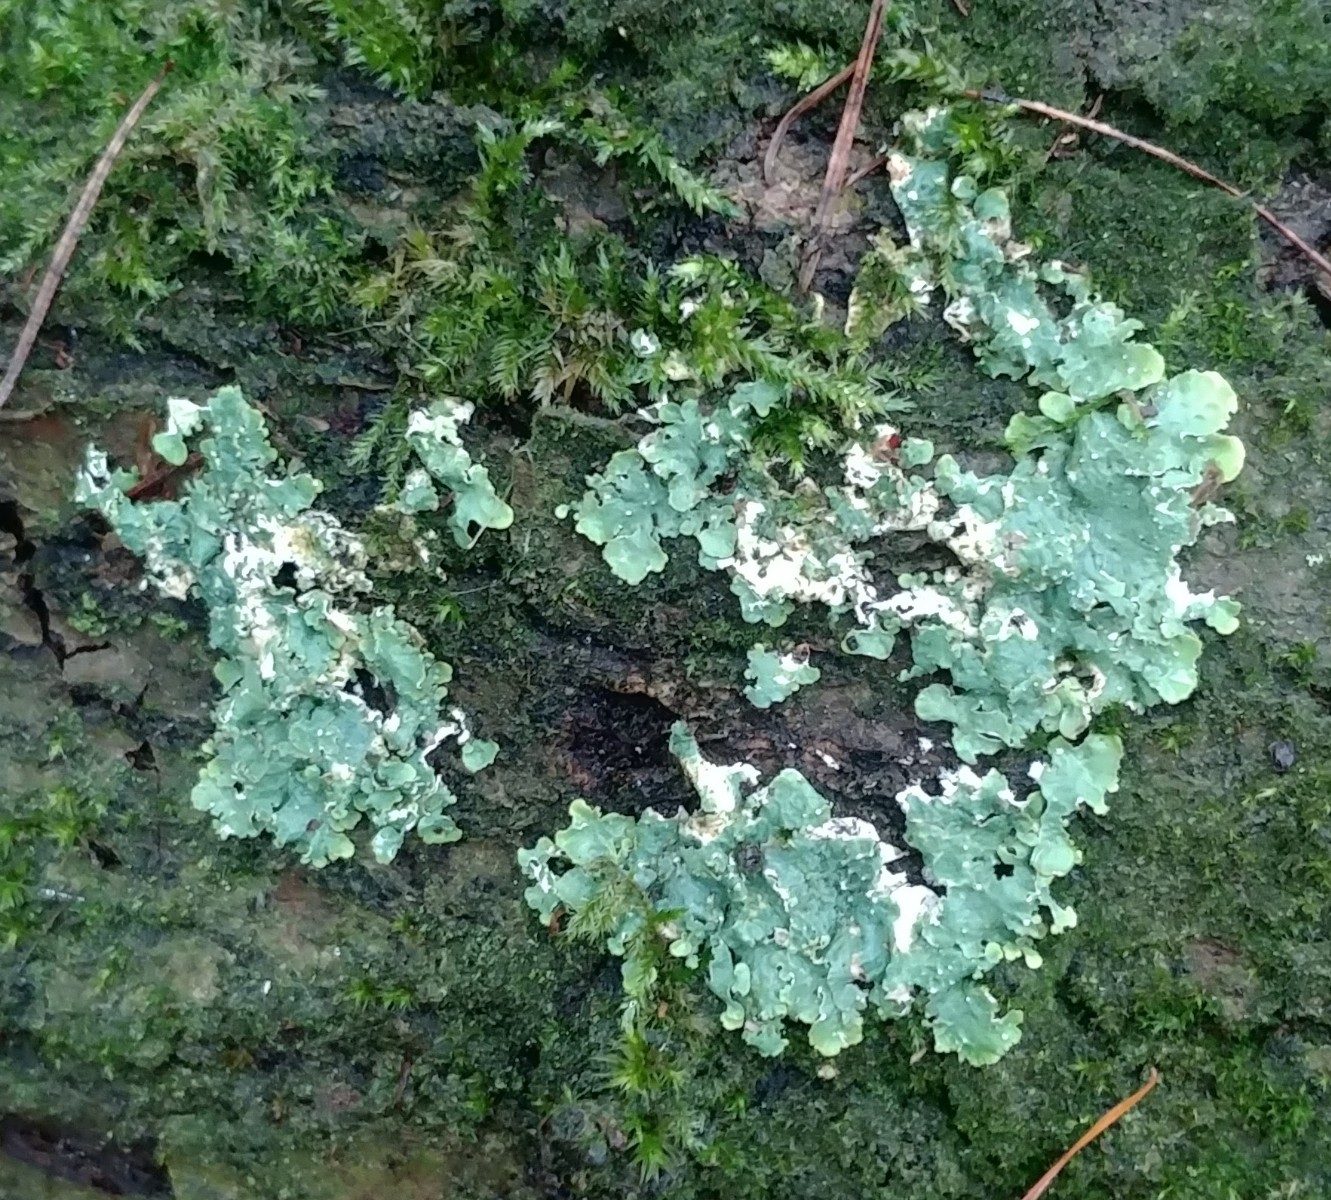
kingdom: Fungi
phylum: Ascomycota
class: Lecanoromycetes
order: Lecanorales
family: Parmeliaceae
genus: Parmelia
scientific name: Parmelia sulcata
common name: rynket skållav
